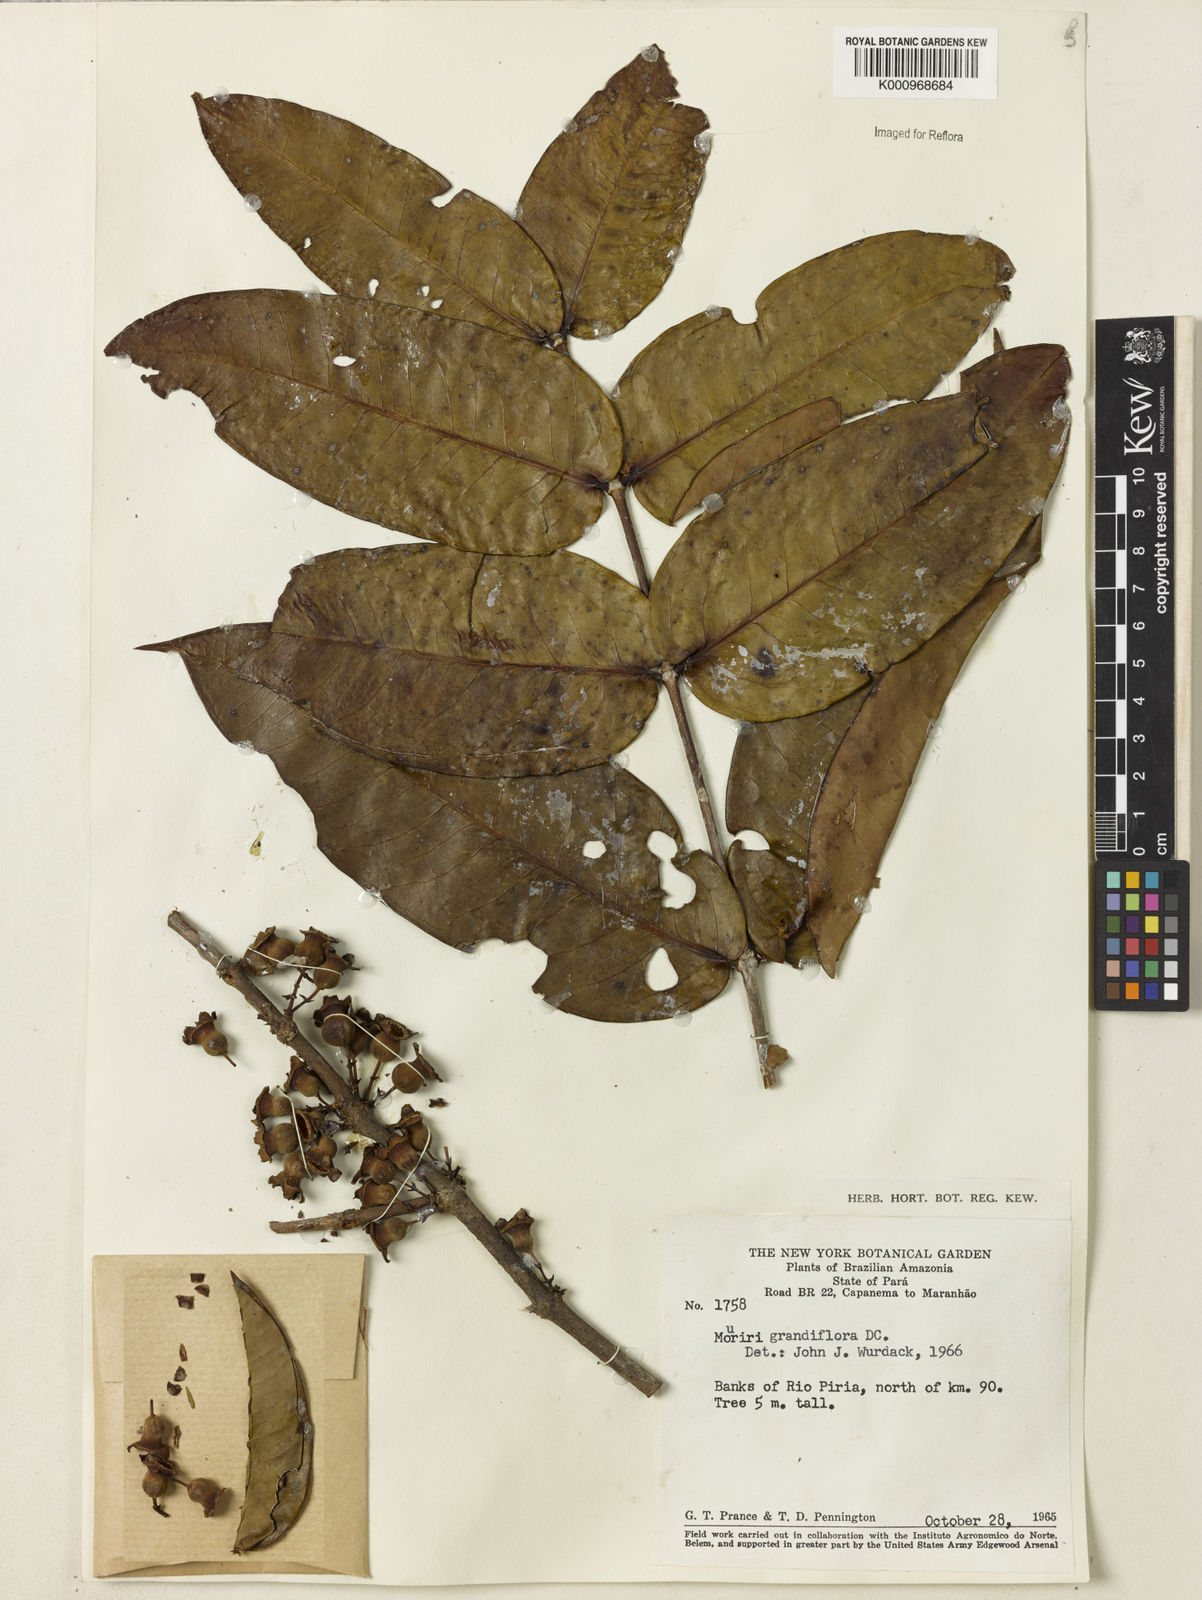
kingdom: Plantae
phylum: Tracheophyta
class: Magnoliopsida
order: Myrtales
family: Melastomataceae
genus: Mouriri
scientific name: Mouriri grandiflora
